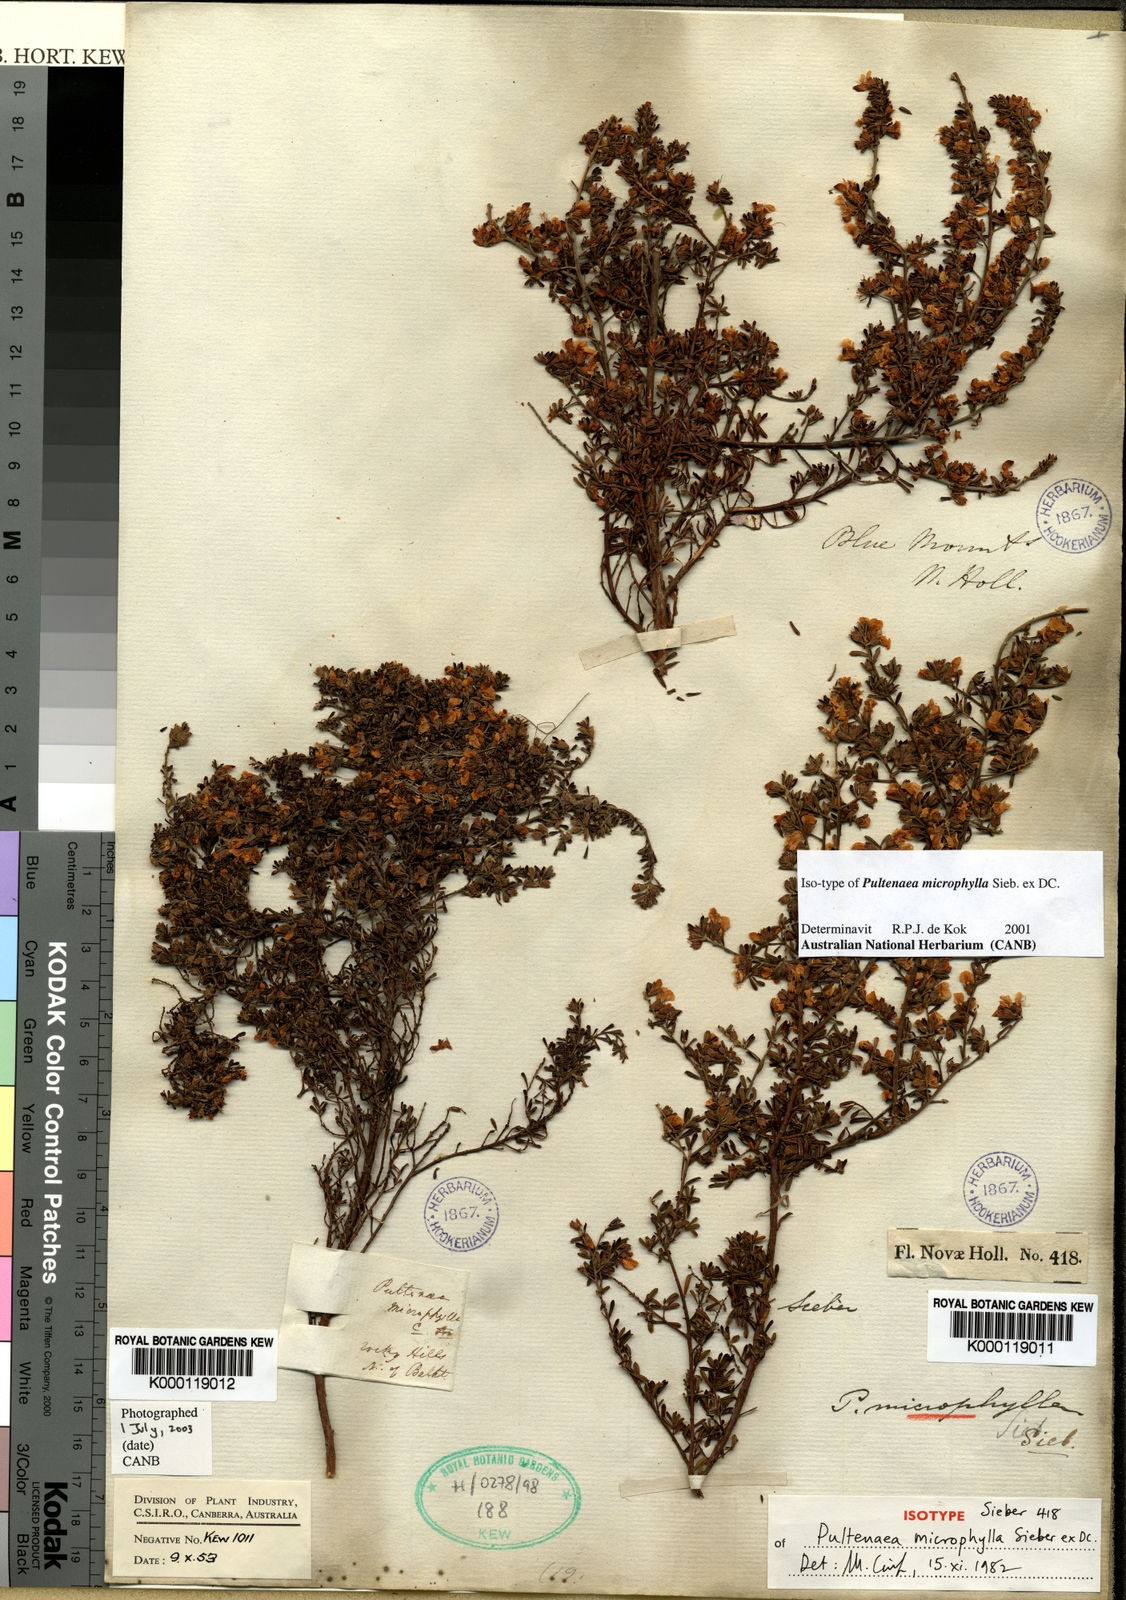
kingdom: Plantae
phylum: Tracheophyta
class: Magnoliopsida
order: Fabales
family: Fabaceae
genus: Pultenaea
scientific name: Pultenaea microphylla
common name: Spreading bush-pea
